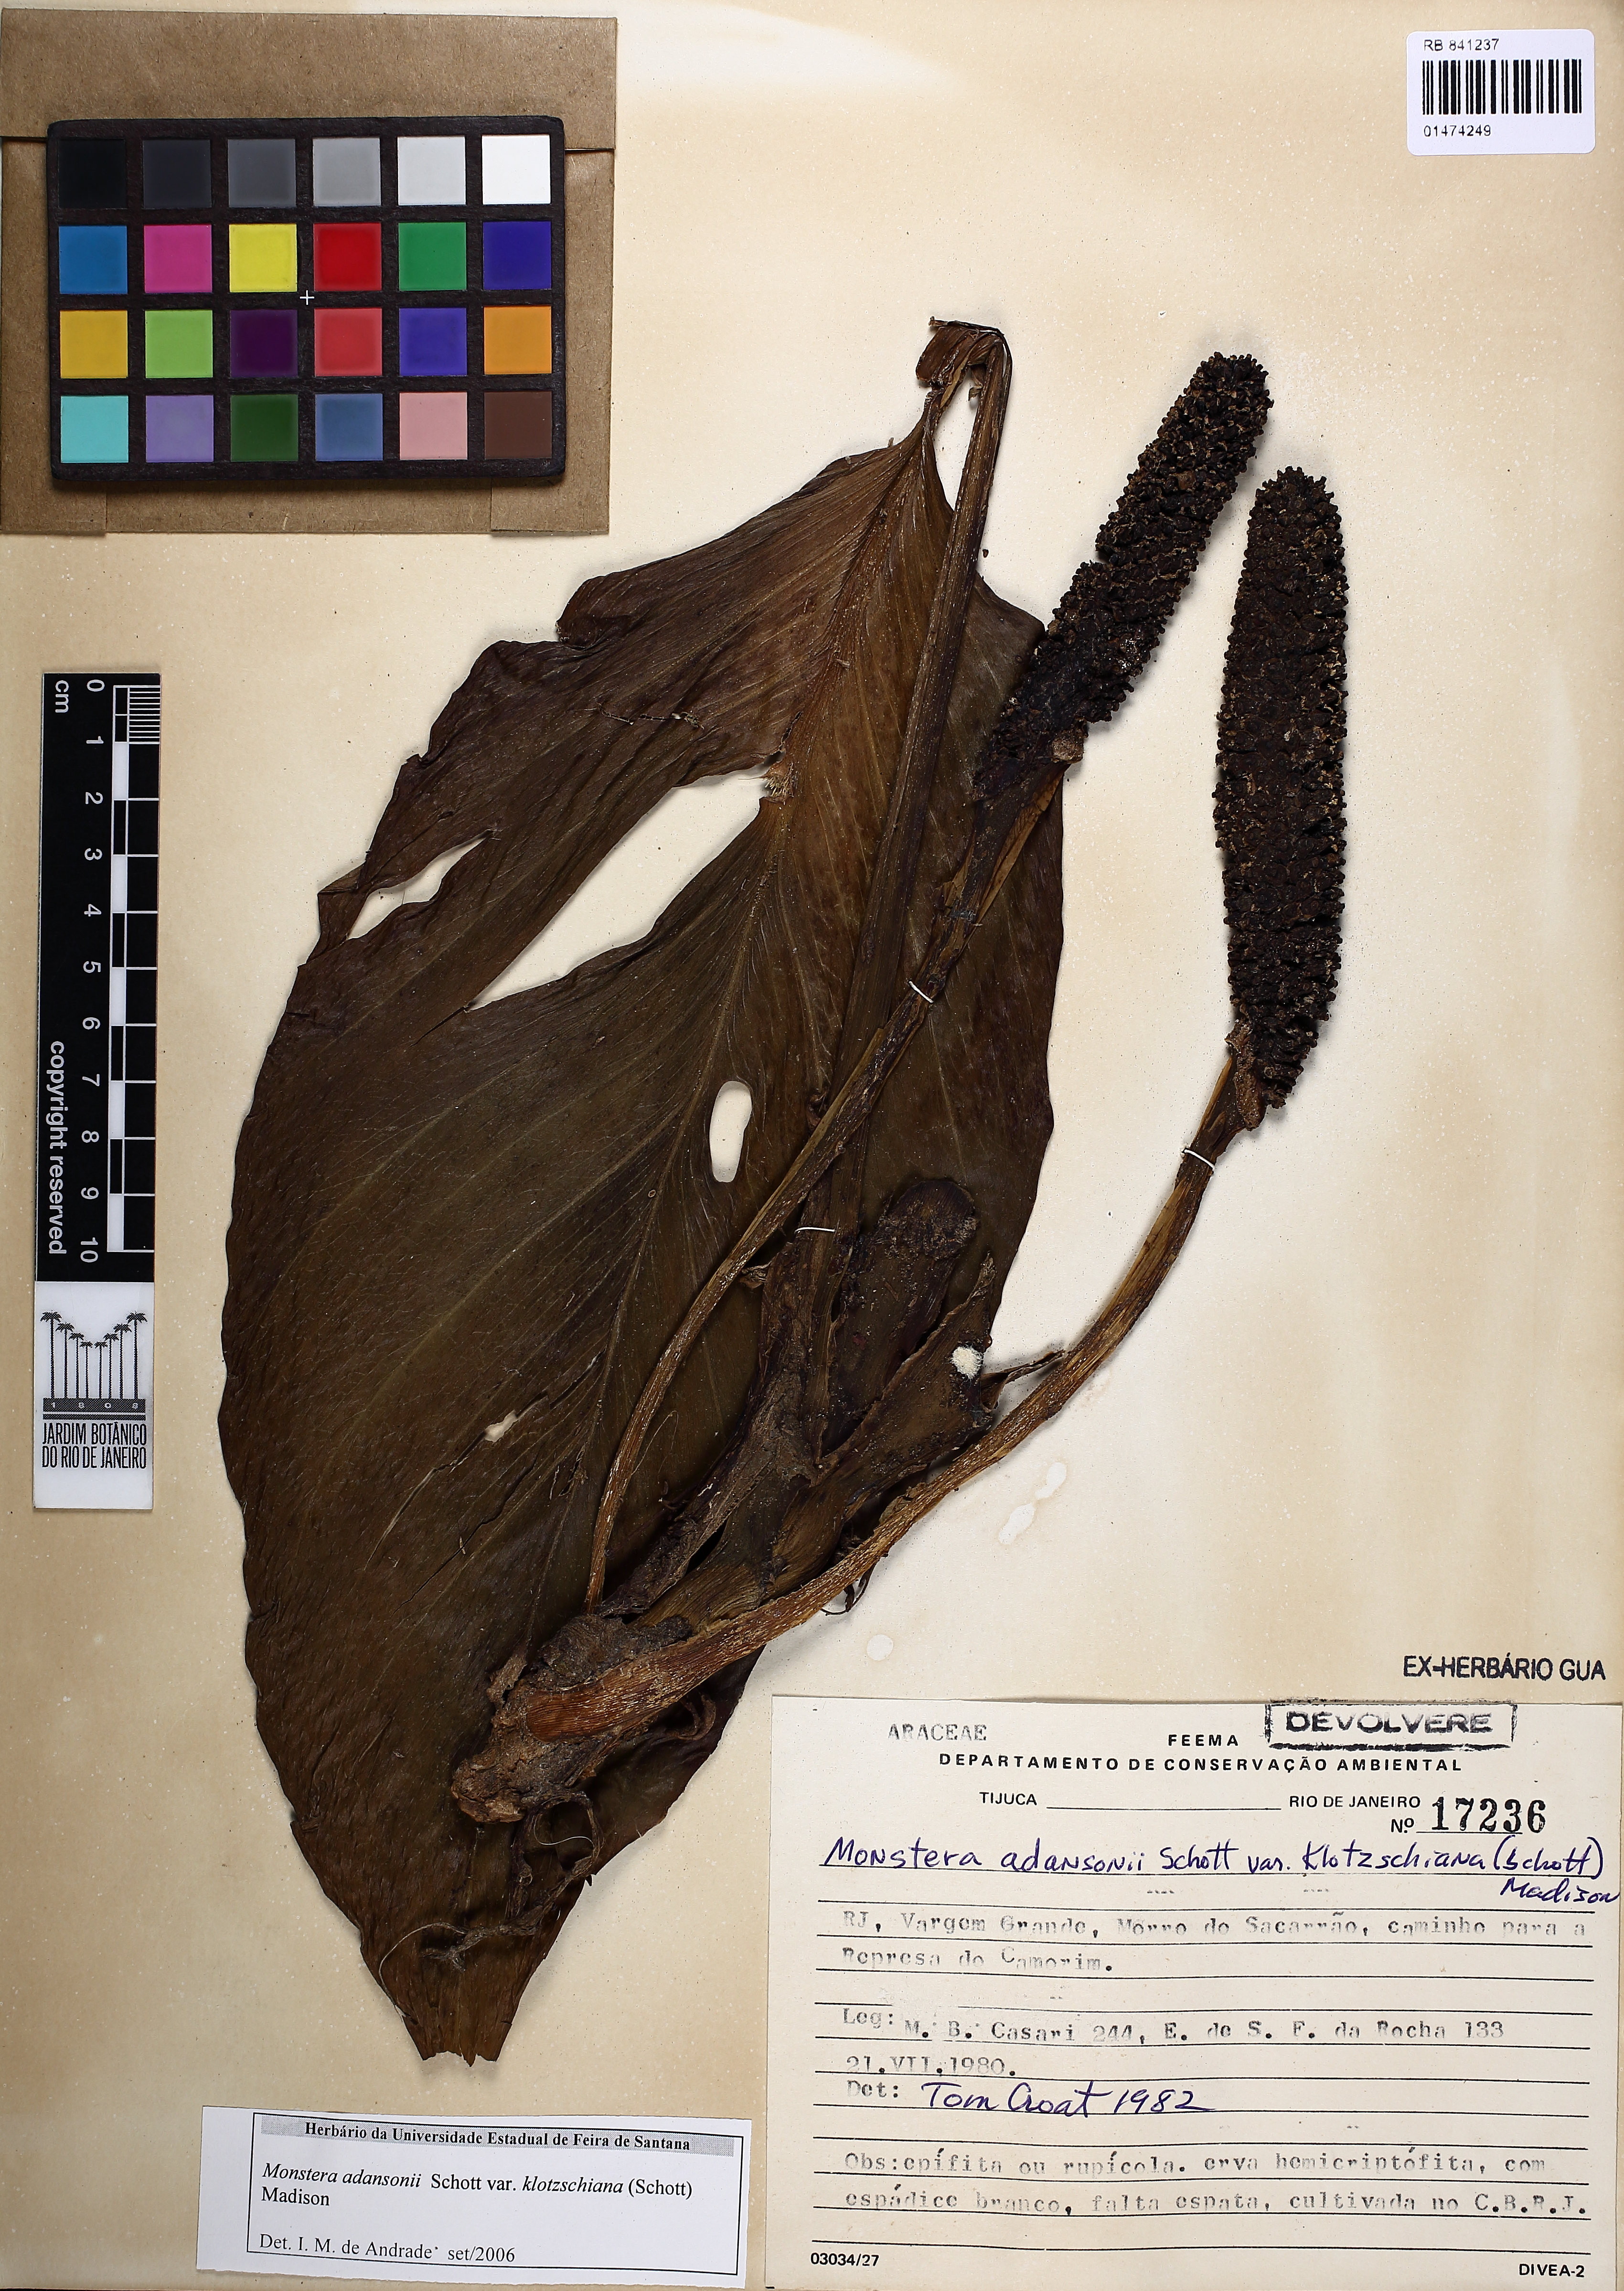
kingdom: Plantae
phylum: Tracheophyta
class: Liliopsida
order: Alismatales
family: Araceae
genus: Monstera
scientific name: Monstera adansonii
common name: Tarovine
